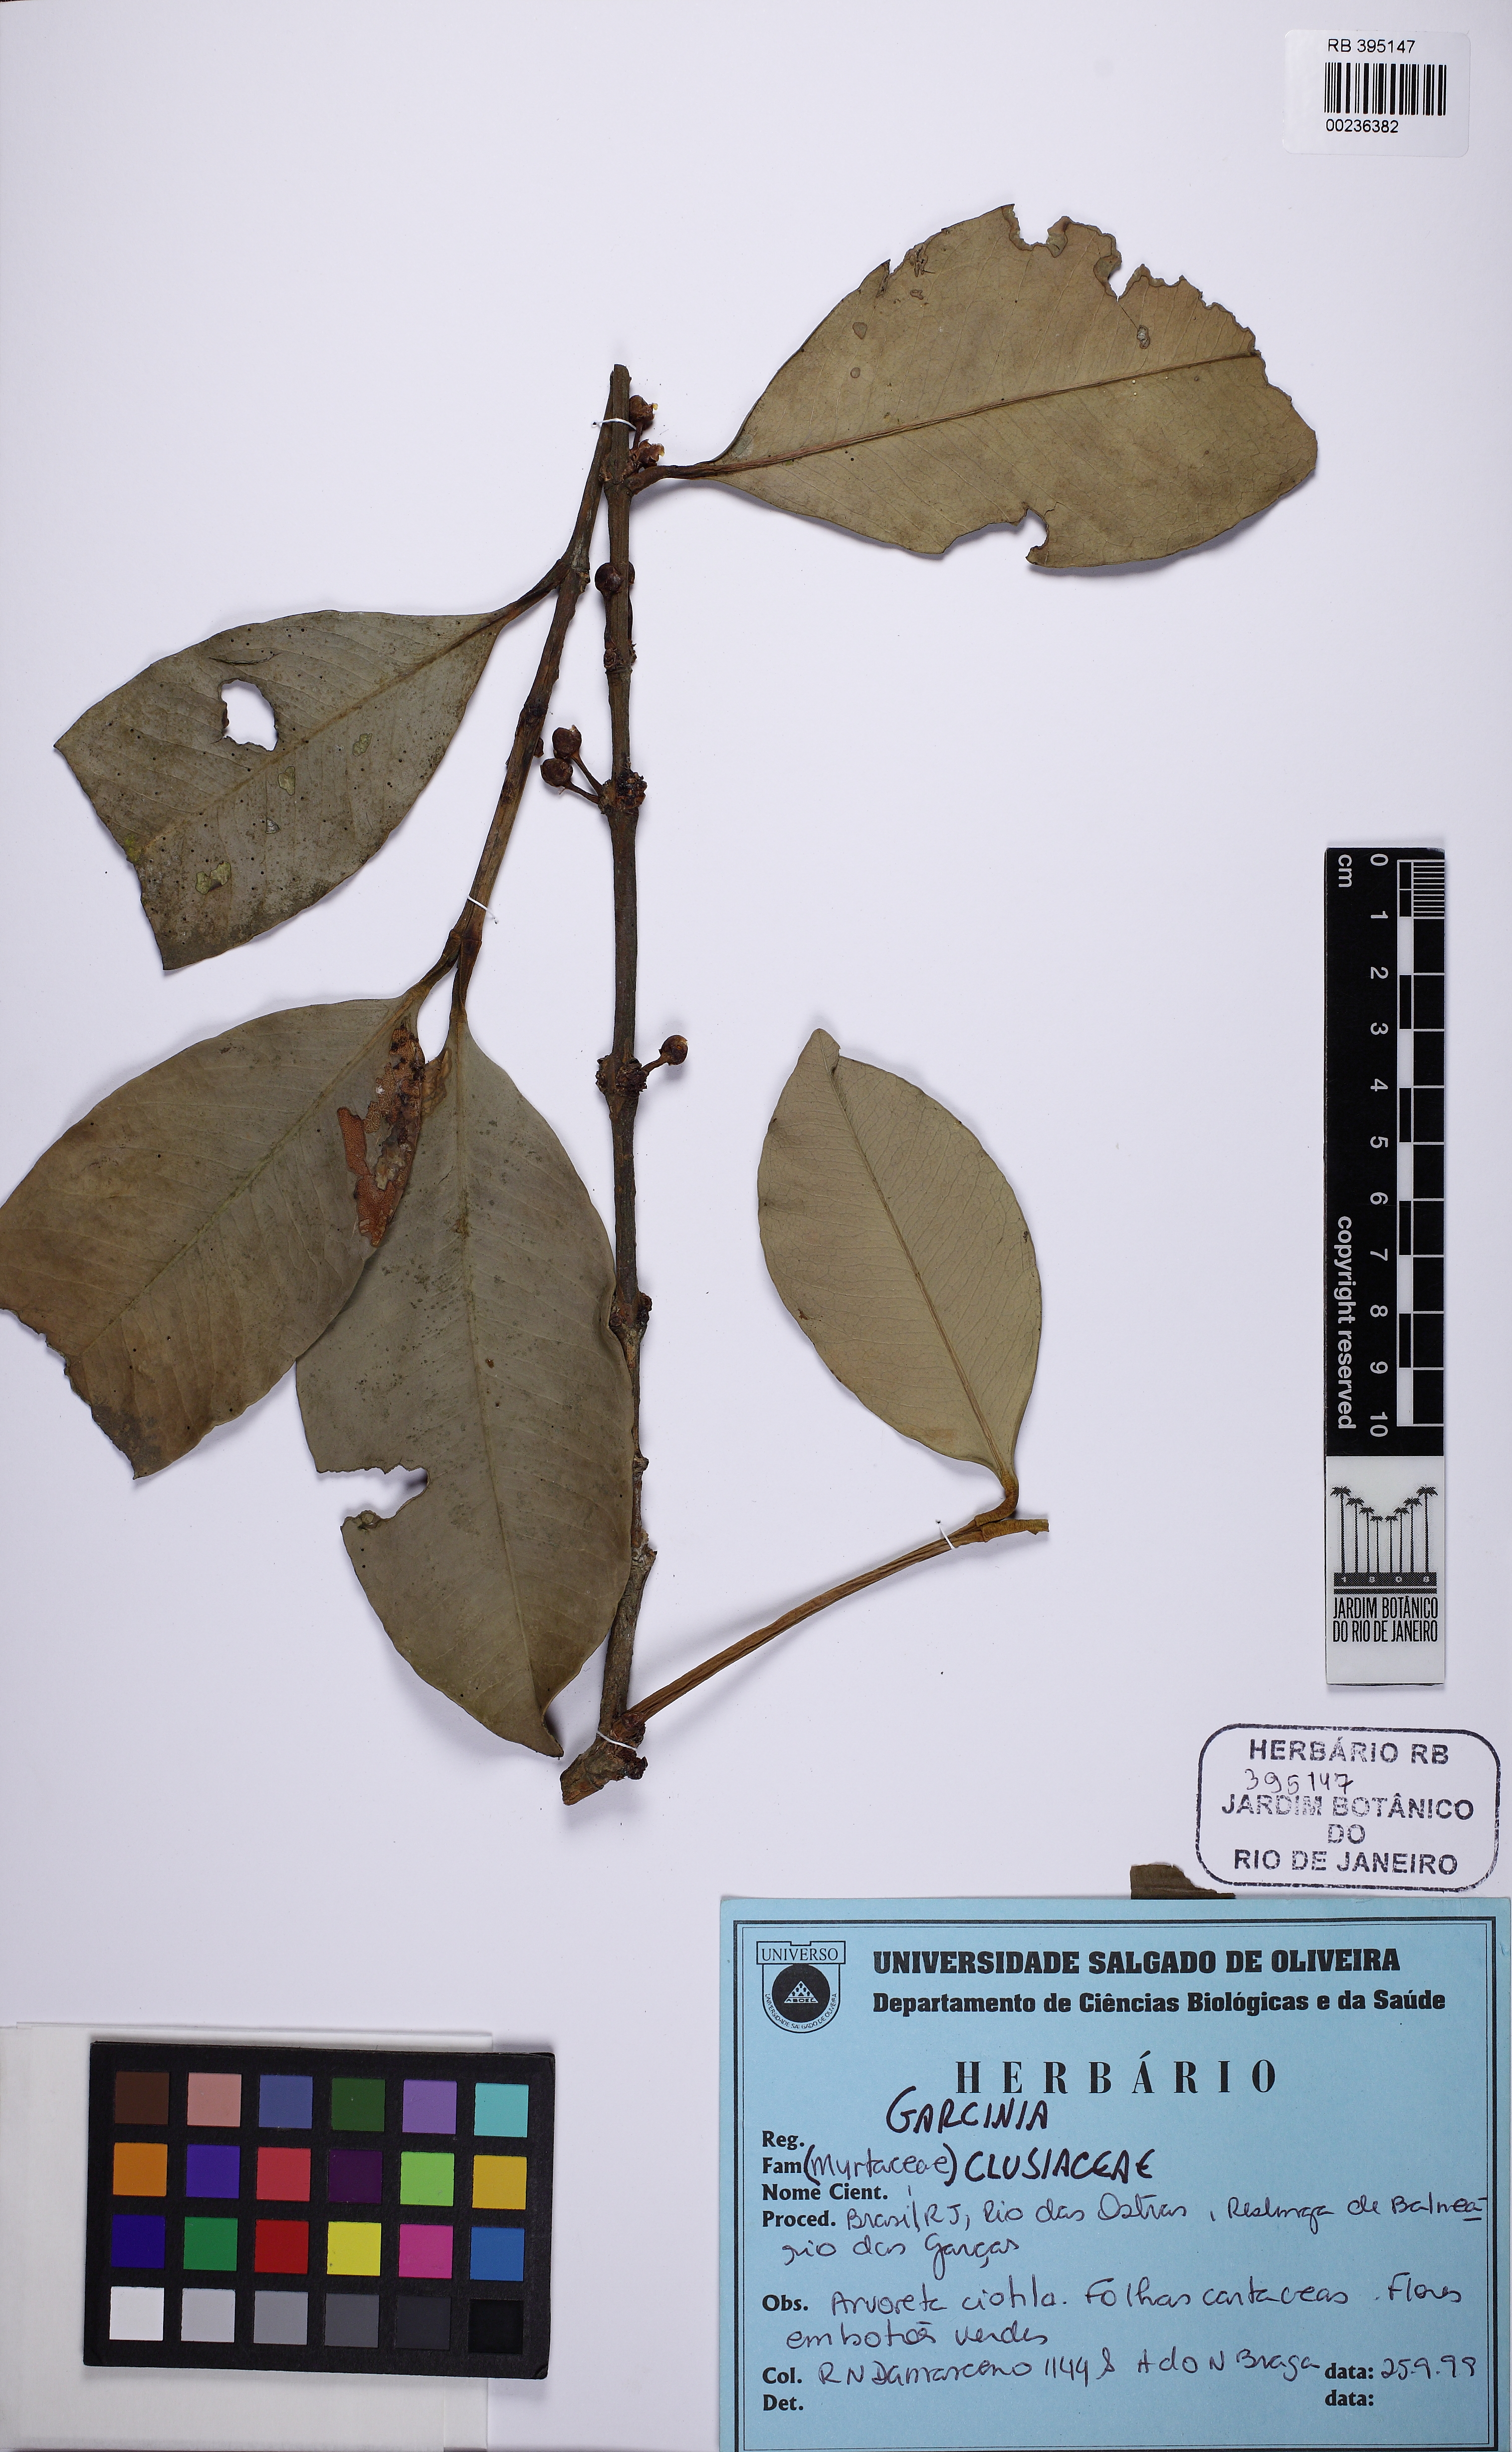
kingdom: Plantae
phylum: Tracheophyta
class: Magnoliopsida
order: Malpighiales
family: Clusiaceae
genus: Garcinia
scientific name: Garcinia brasiliensis
